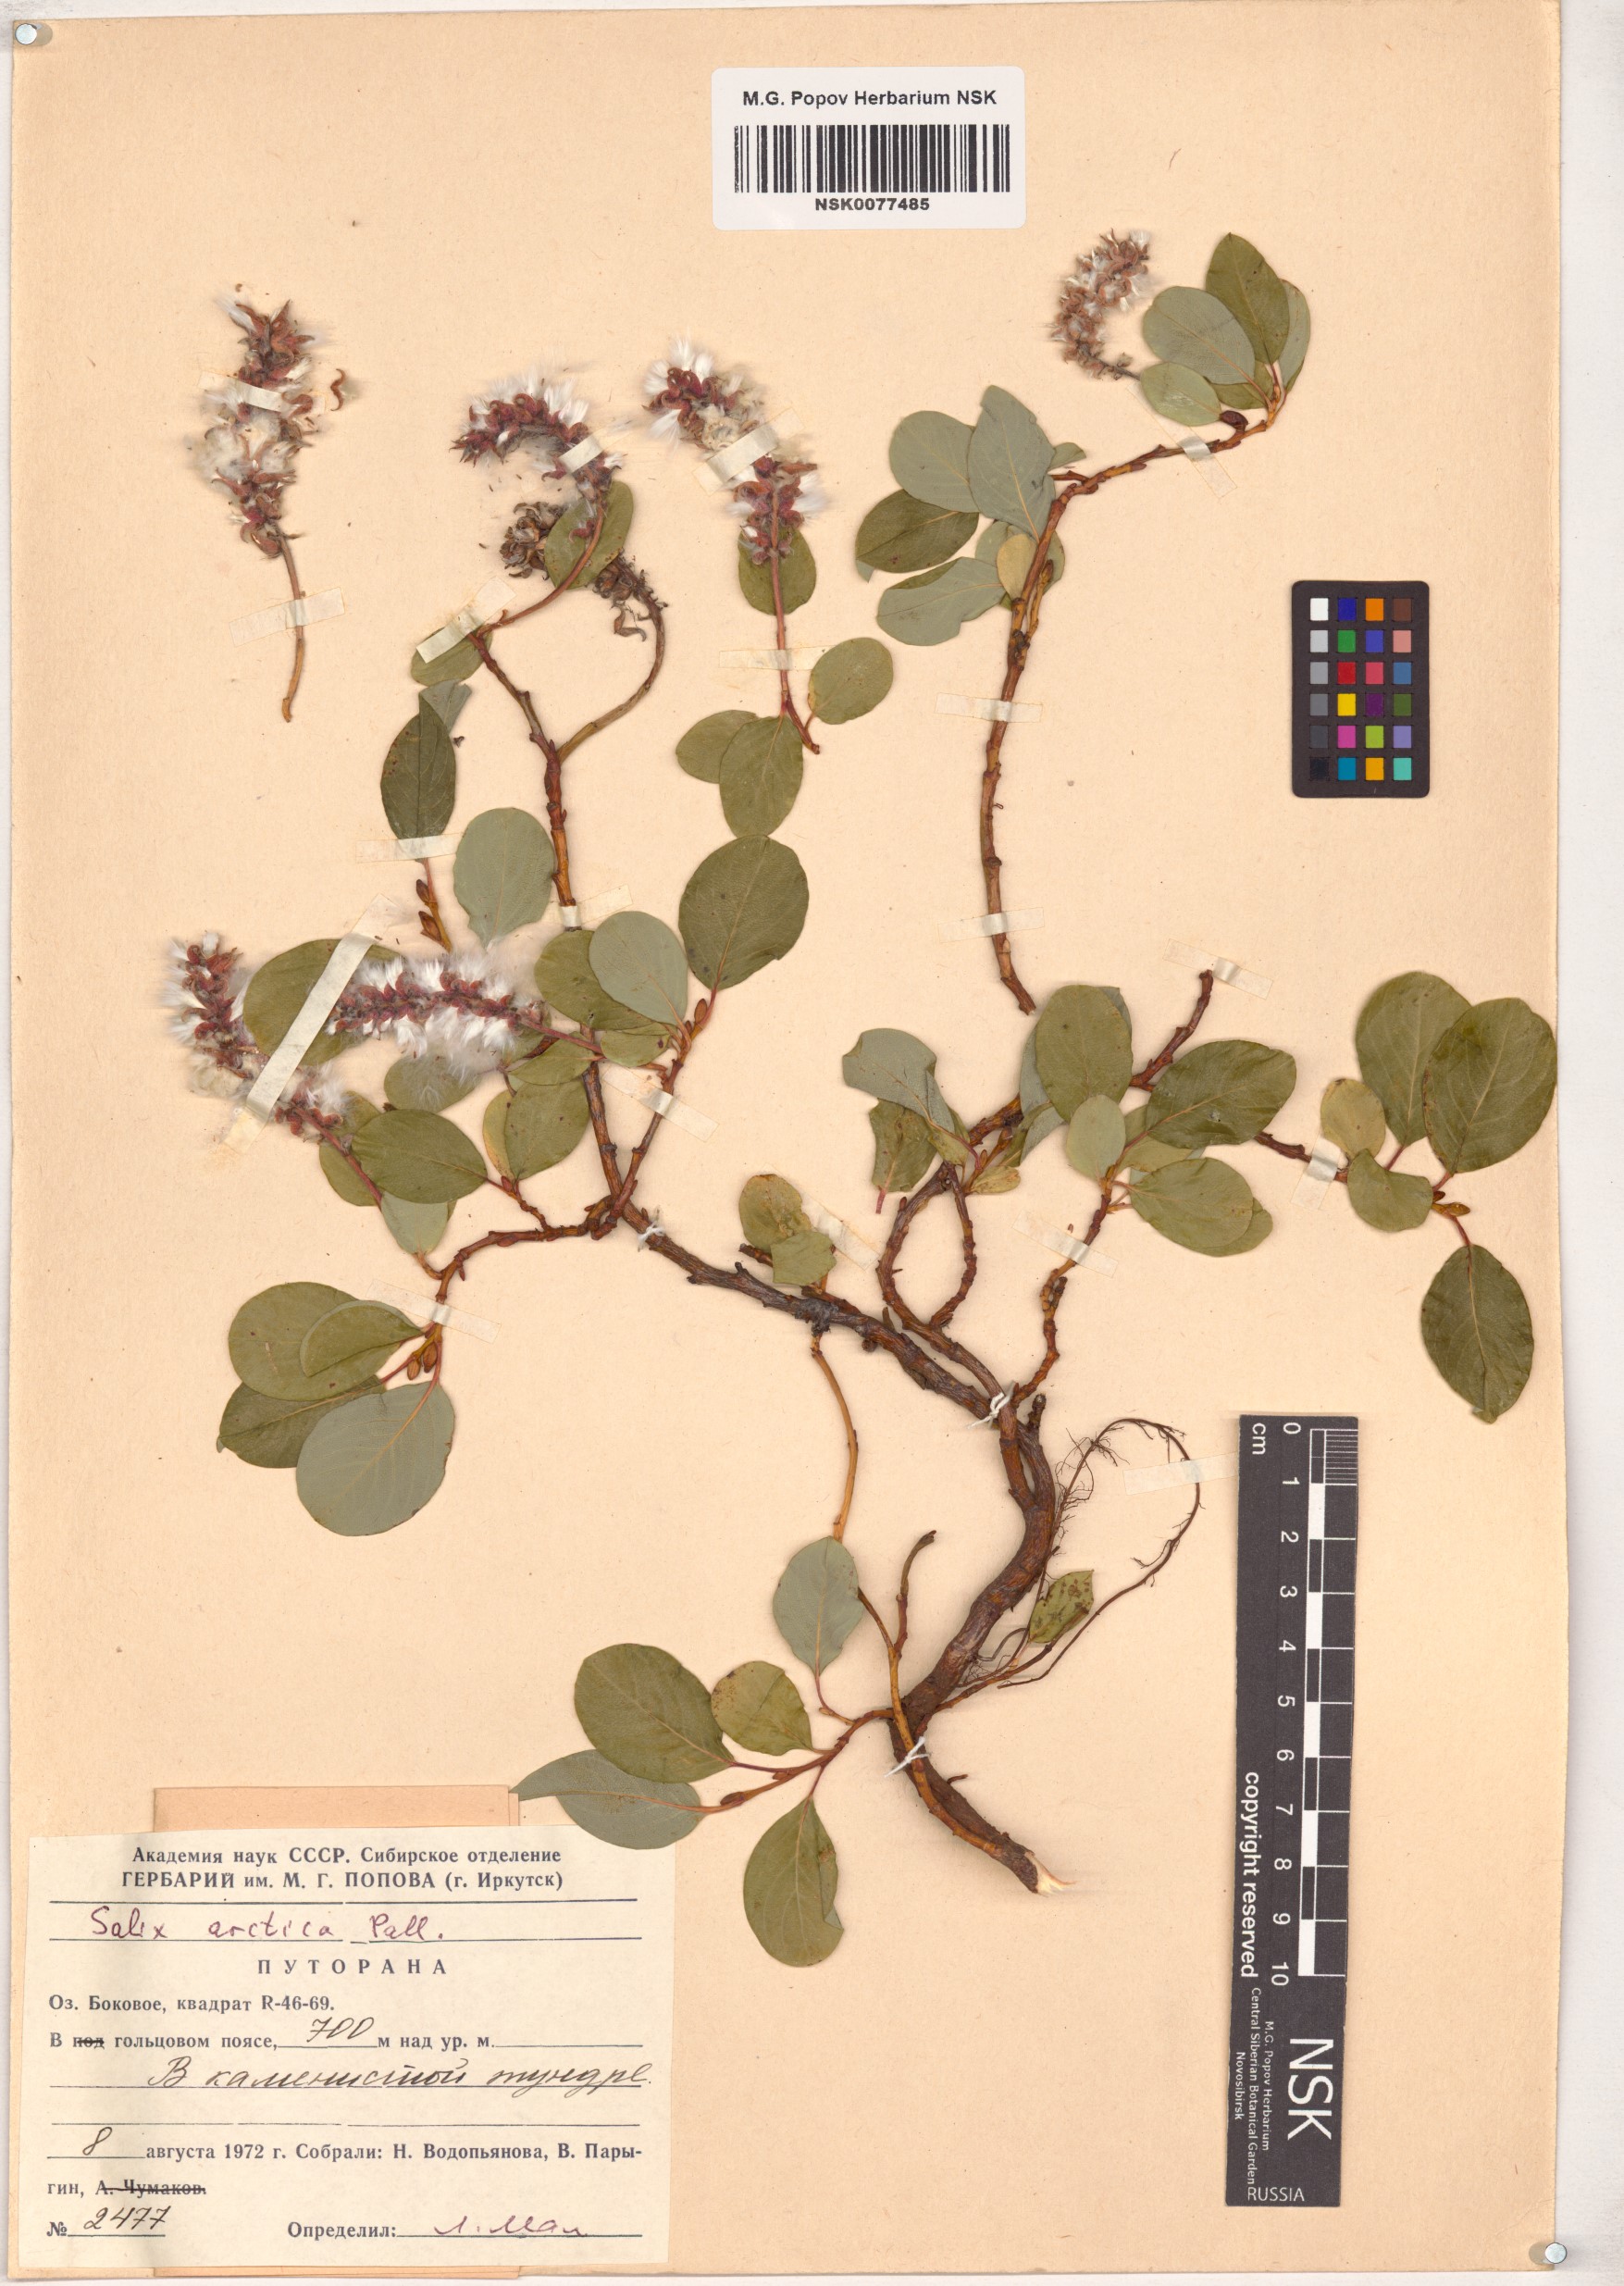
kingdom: Plantae
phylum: Tracheophyta
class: Magnoliopsida
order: Malpighiales
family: Salicaceae
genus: Salix
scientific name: Salix arctica
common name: Arctic willow
